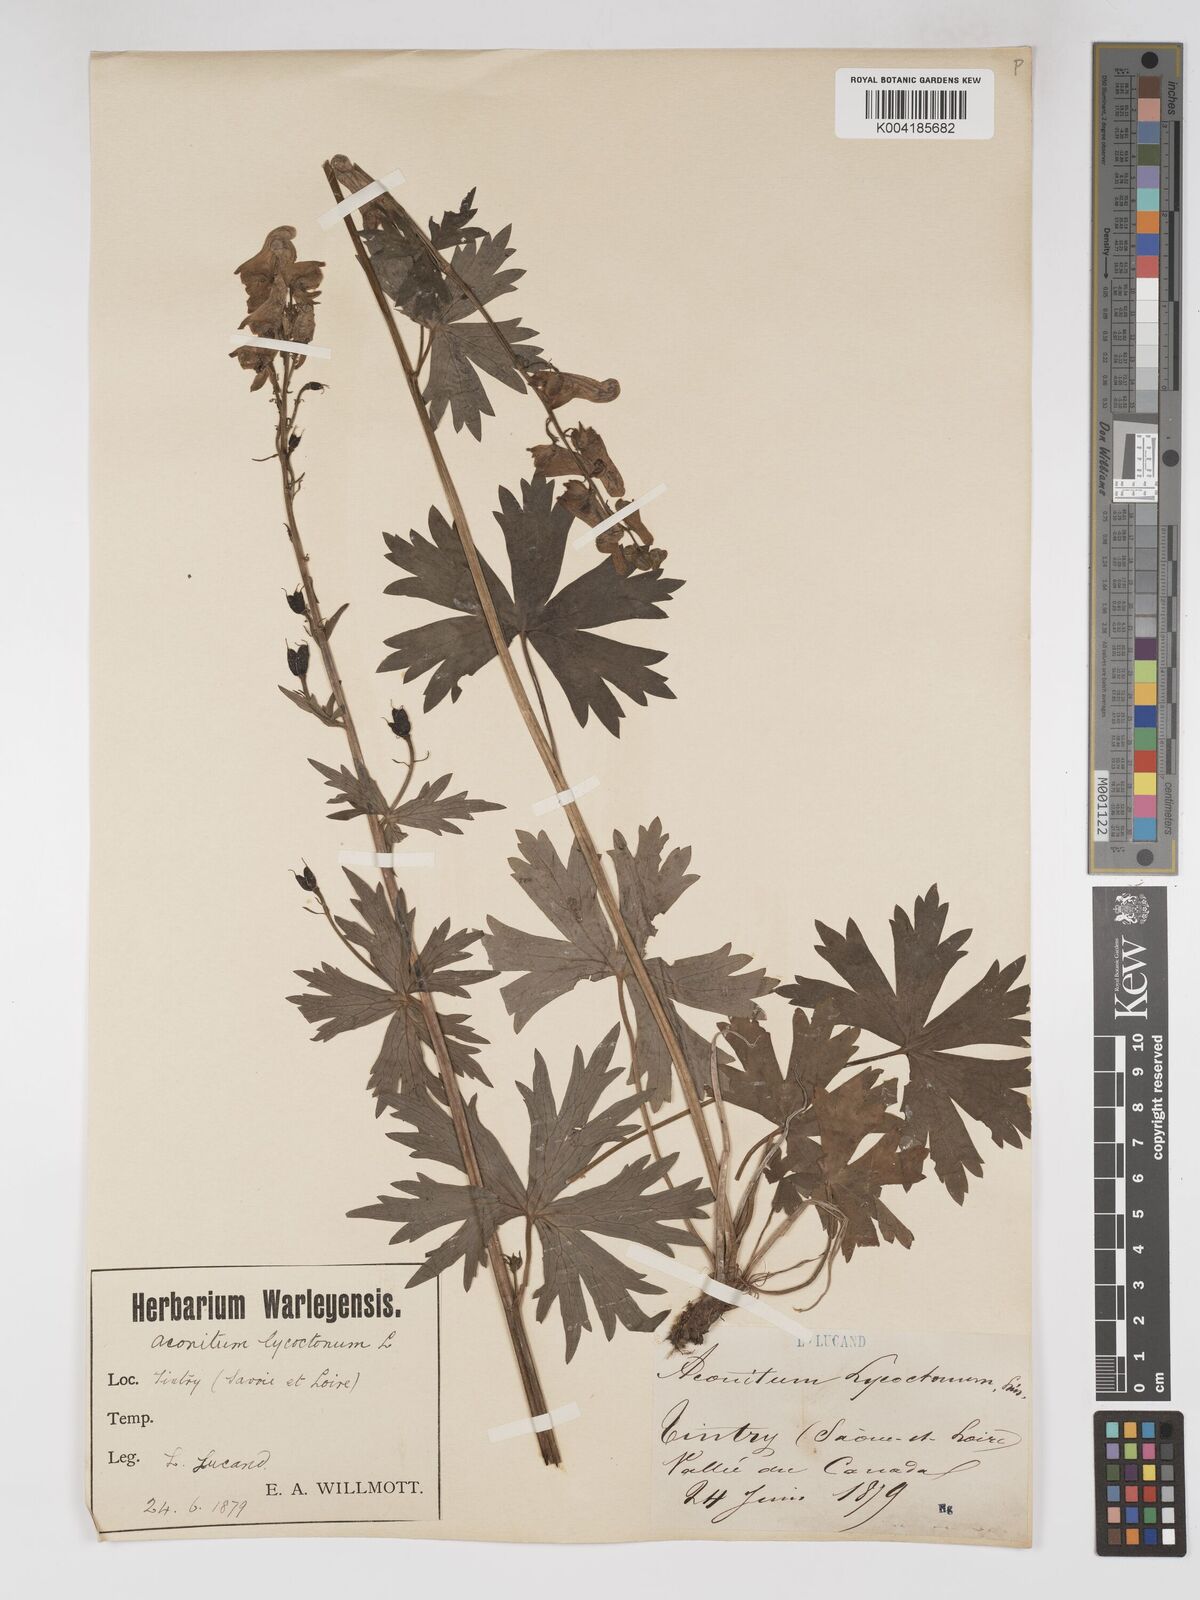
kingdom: Plantae
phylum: Tracheophyta
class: Magnoliopsida
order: Ranunculales
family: Ranunculaceae
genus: Aconitum
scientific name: Aconitum lycoctonum
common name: Wolf's-bane
